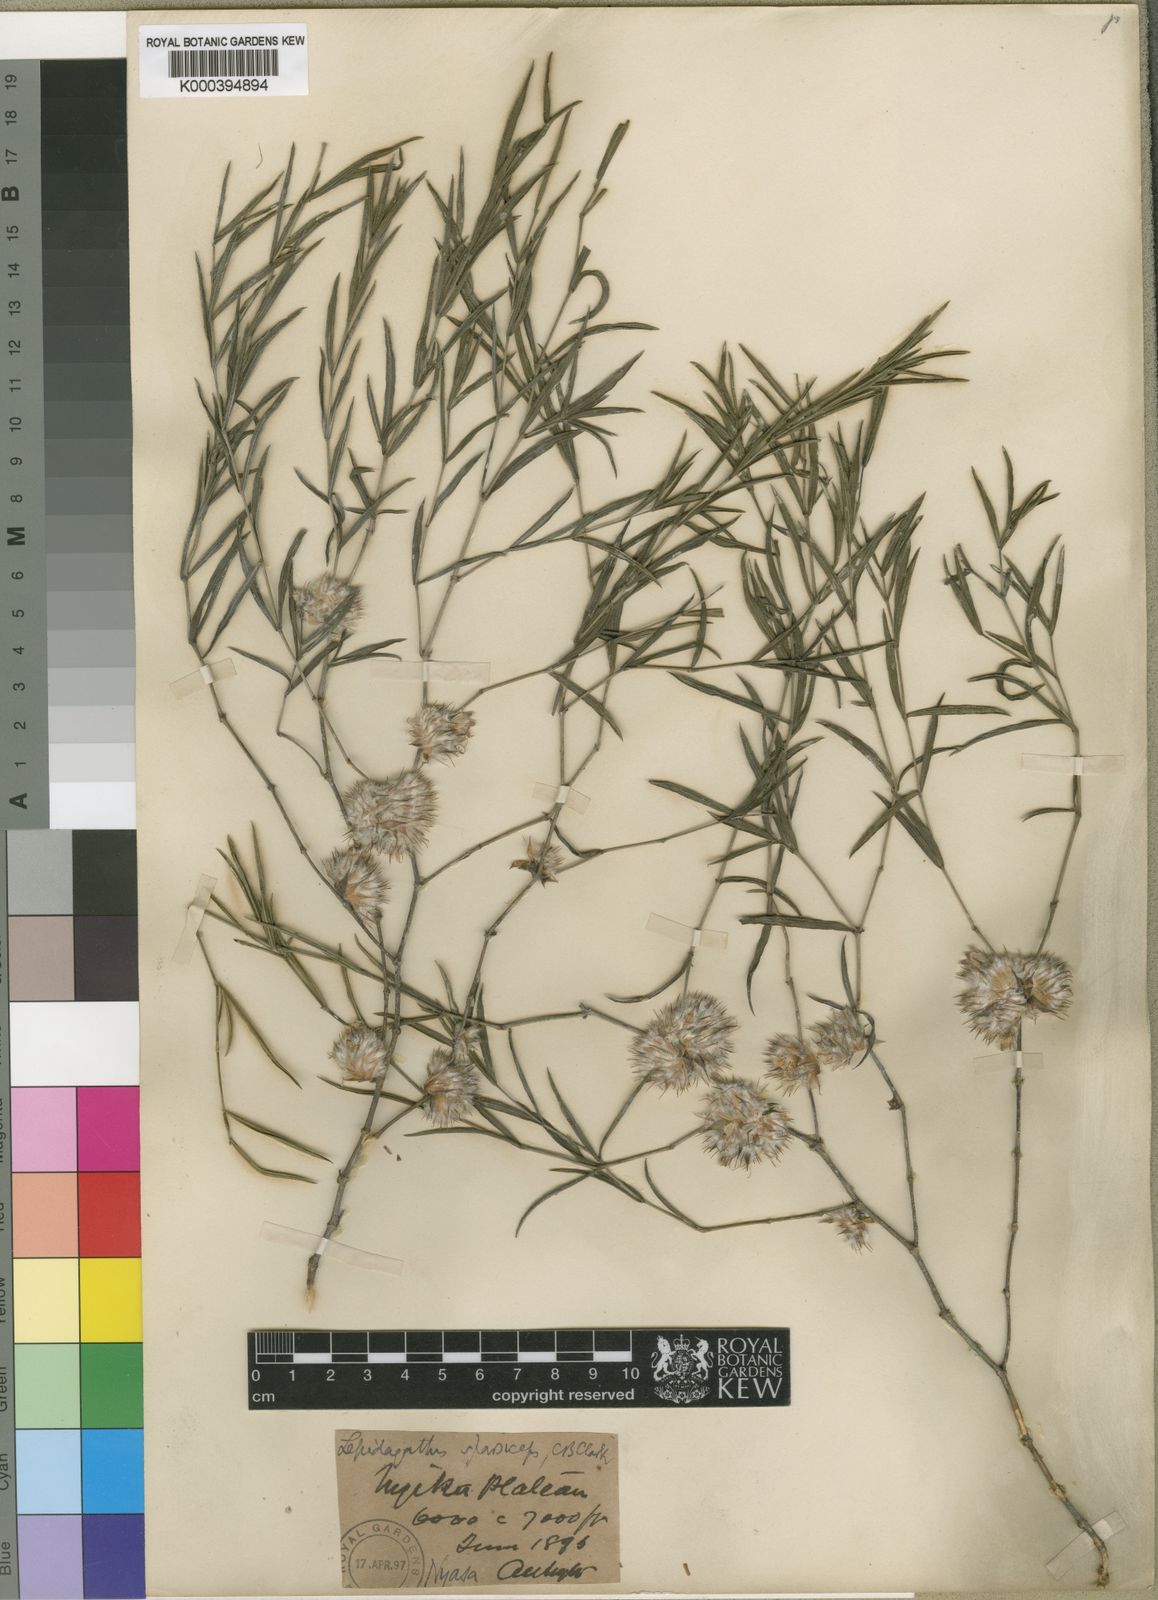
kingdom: Plantae
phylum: Tracheophyta
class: Magnoliopsida
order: Lamiales
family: Acanthaceae
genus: Lepidagathis
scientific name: Lepidagathis lanatoglabra
